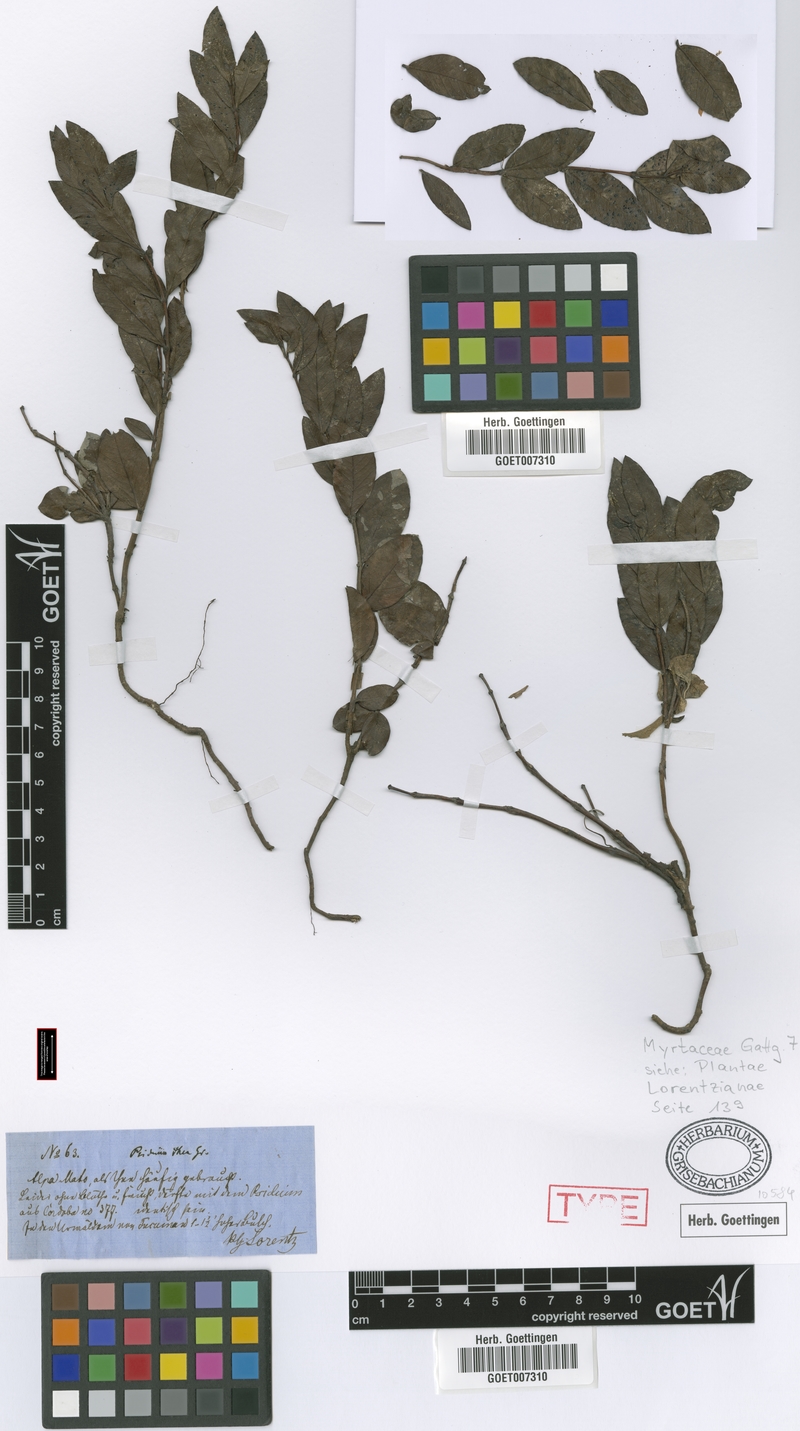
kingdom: Plantae
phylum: Tracheophyta
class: Magnoliopsida
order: Myrtales
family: Myrtaceae
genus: Psidium
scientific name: Psidium salutare
